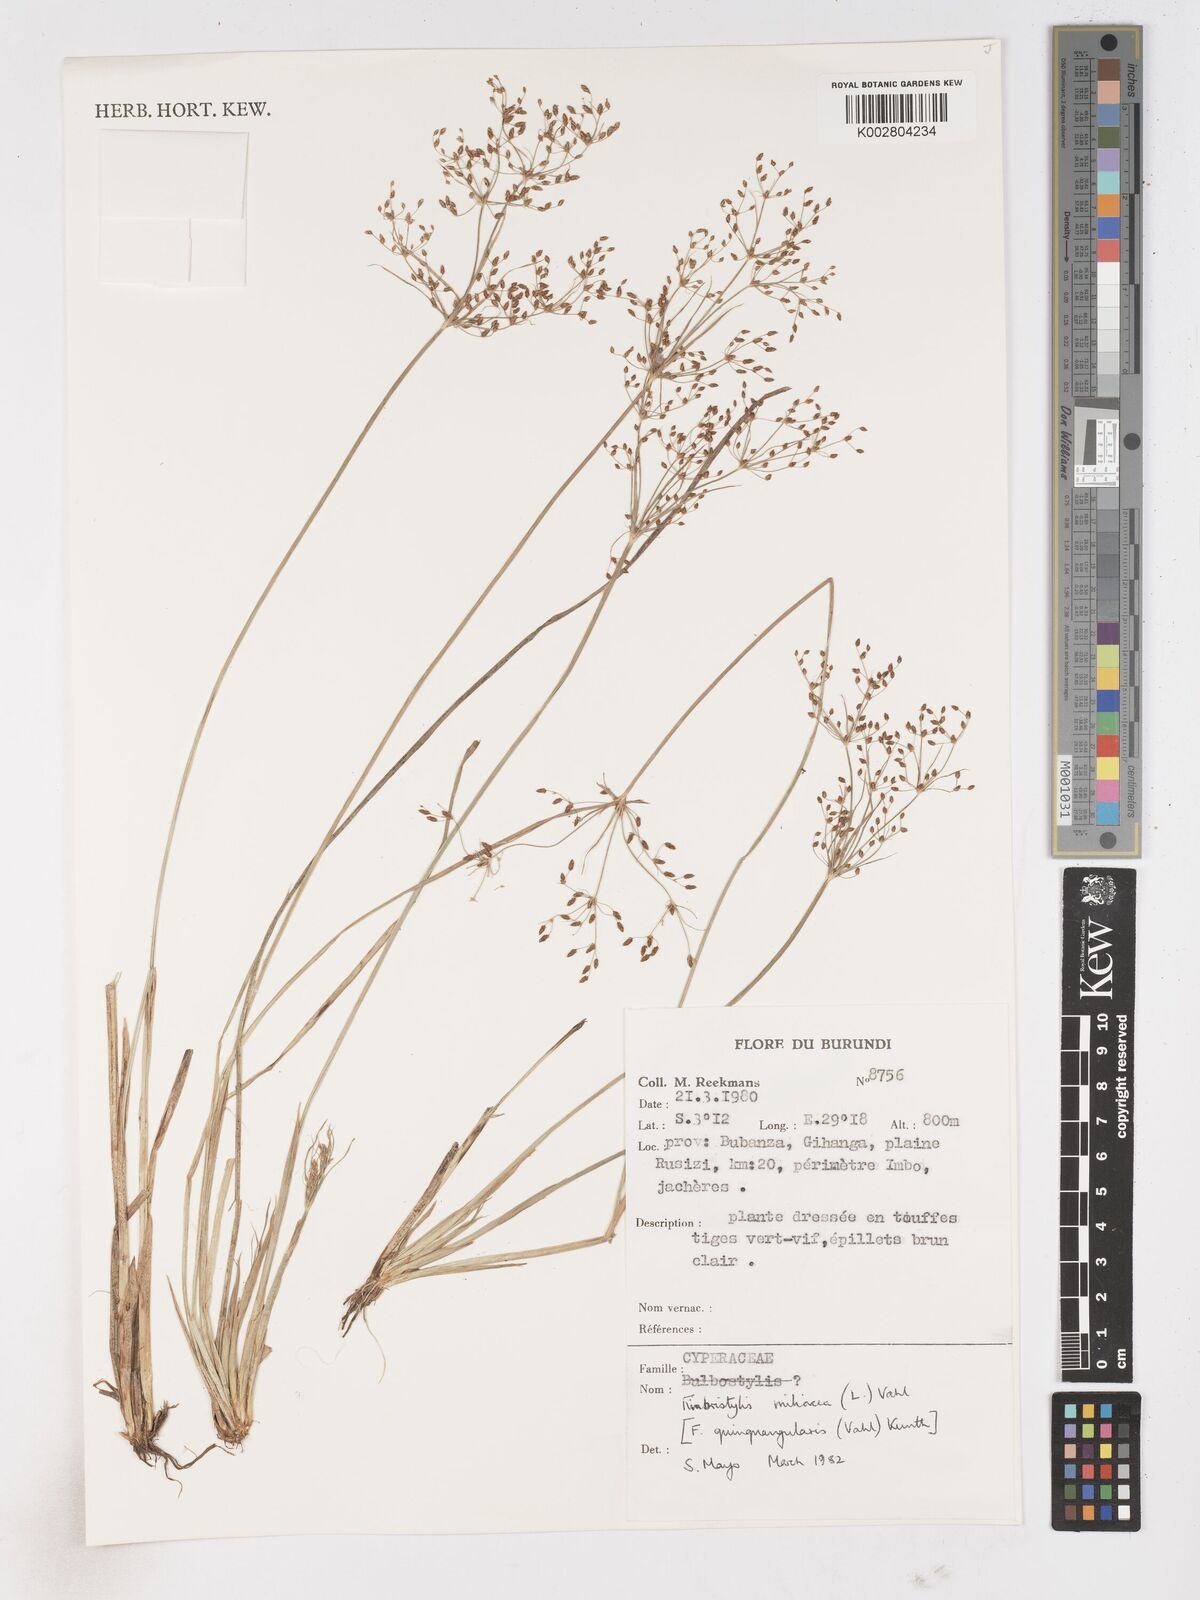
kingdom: Plantae
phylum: Tracheophyta
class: Liliopsida
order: Poales
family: Cyperaceae
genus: Fimbristylis
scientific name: Fimbristylis quinquangularis
